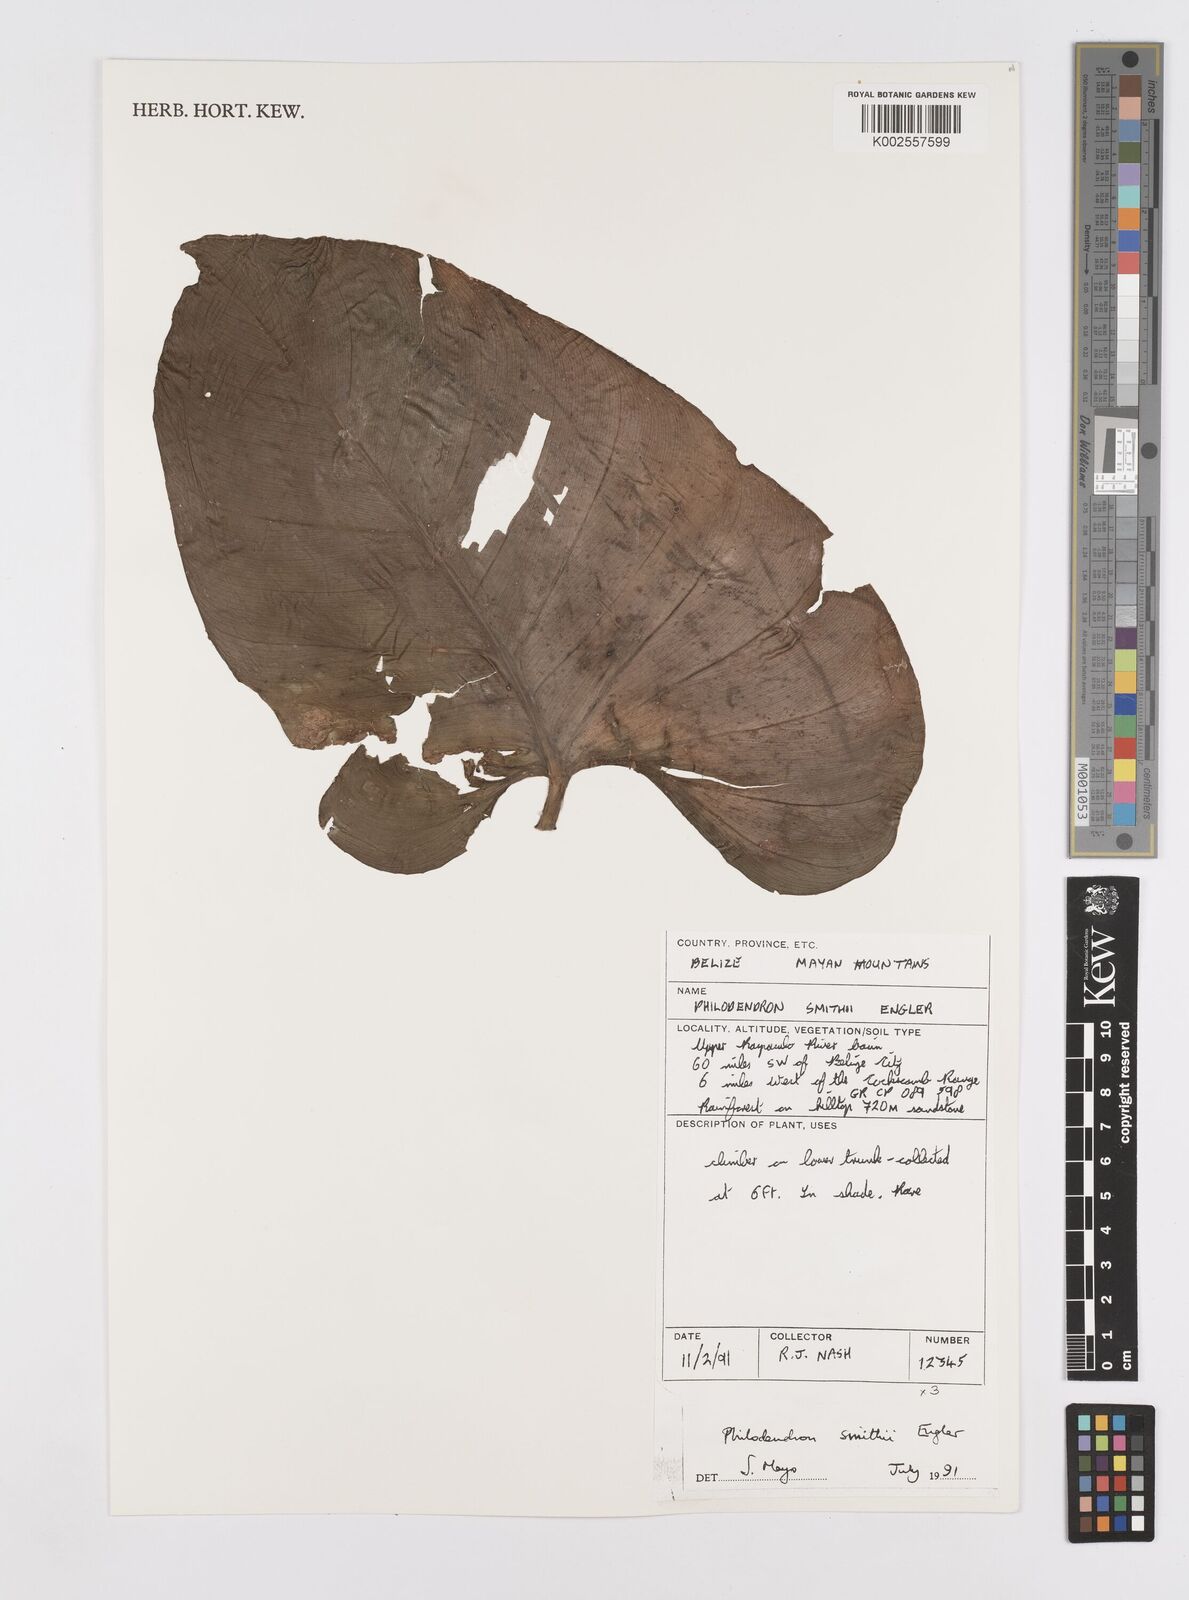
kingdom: Plantae
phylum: Tracheophyta
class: Liliopsida
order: Alismatales
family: Araceae
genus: Philodendron
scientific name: Philodendron smithii
